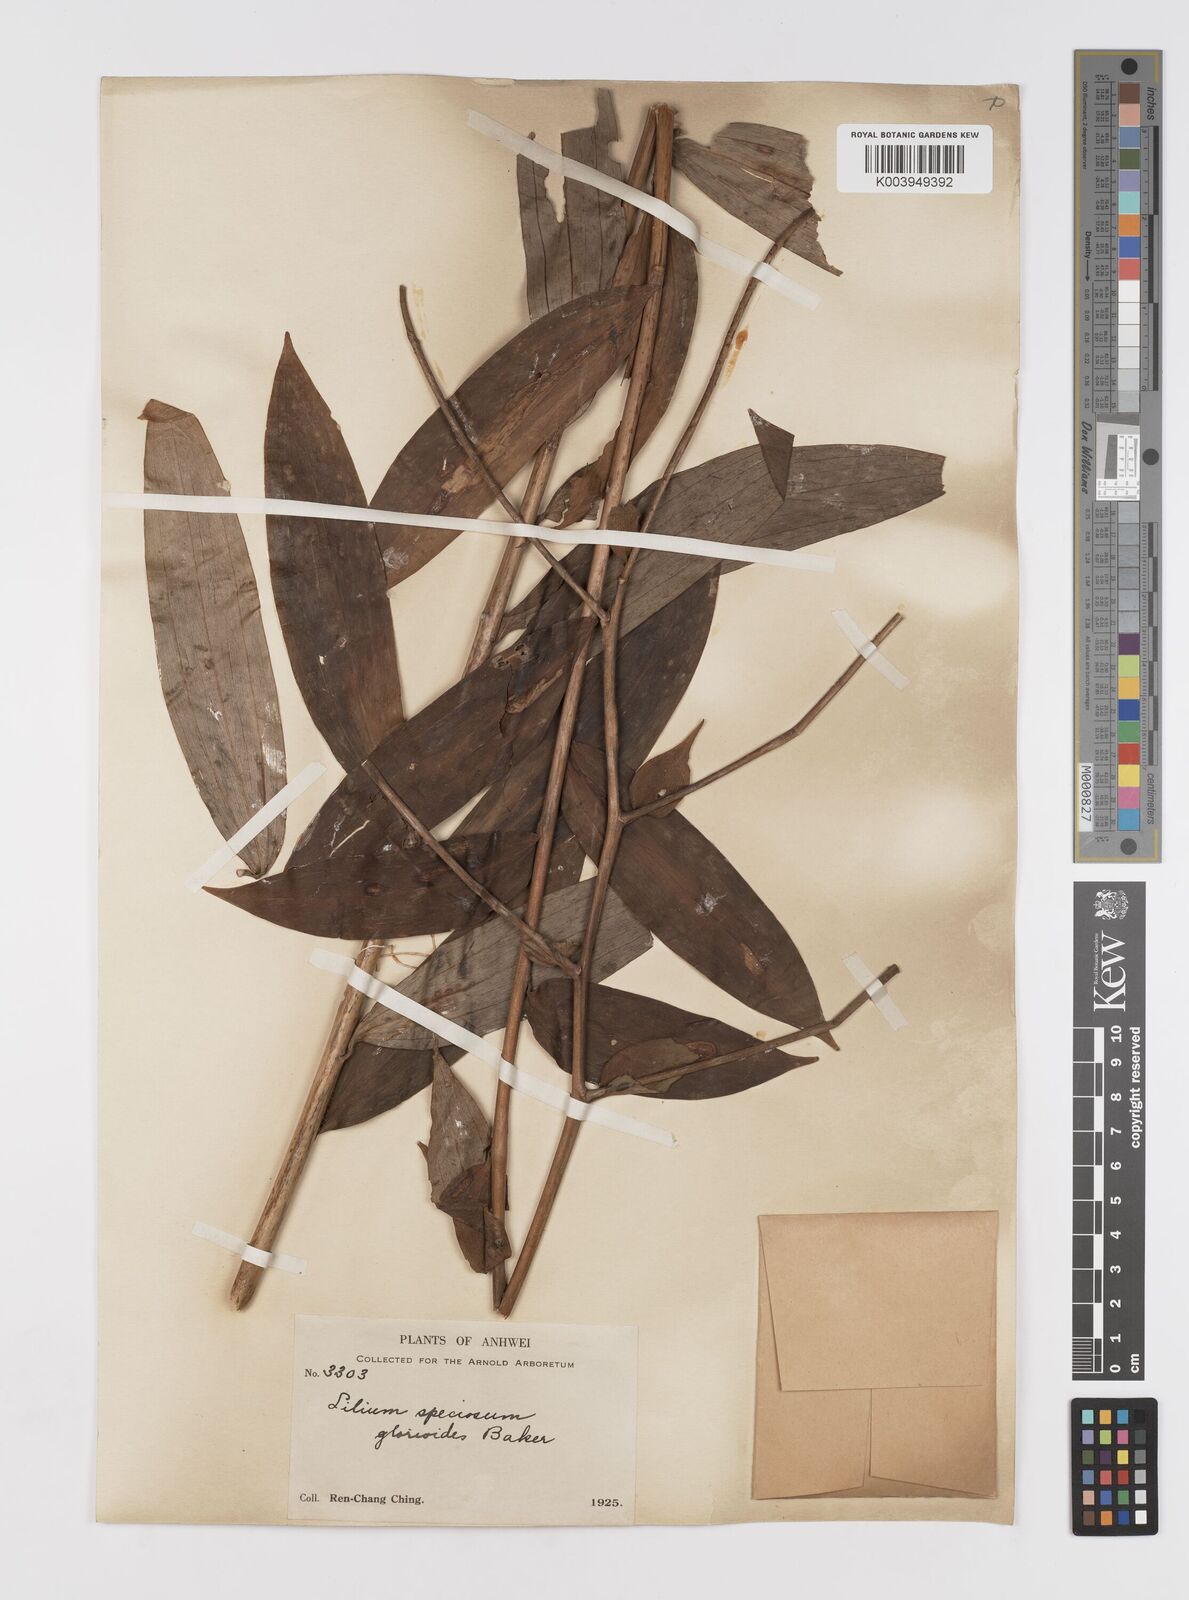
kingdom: Plantae
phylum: Tracheophyta
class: Liliopsida
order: Liliales
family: Liliaceae
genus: Lilium
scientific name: Lilium speciosum
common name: Japanese lily
